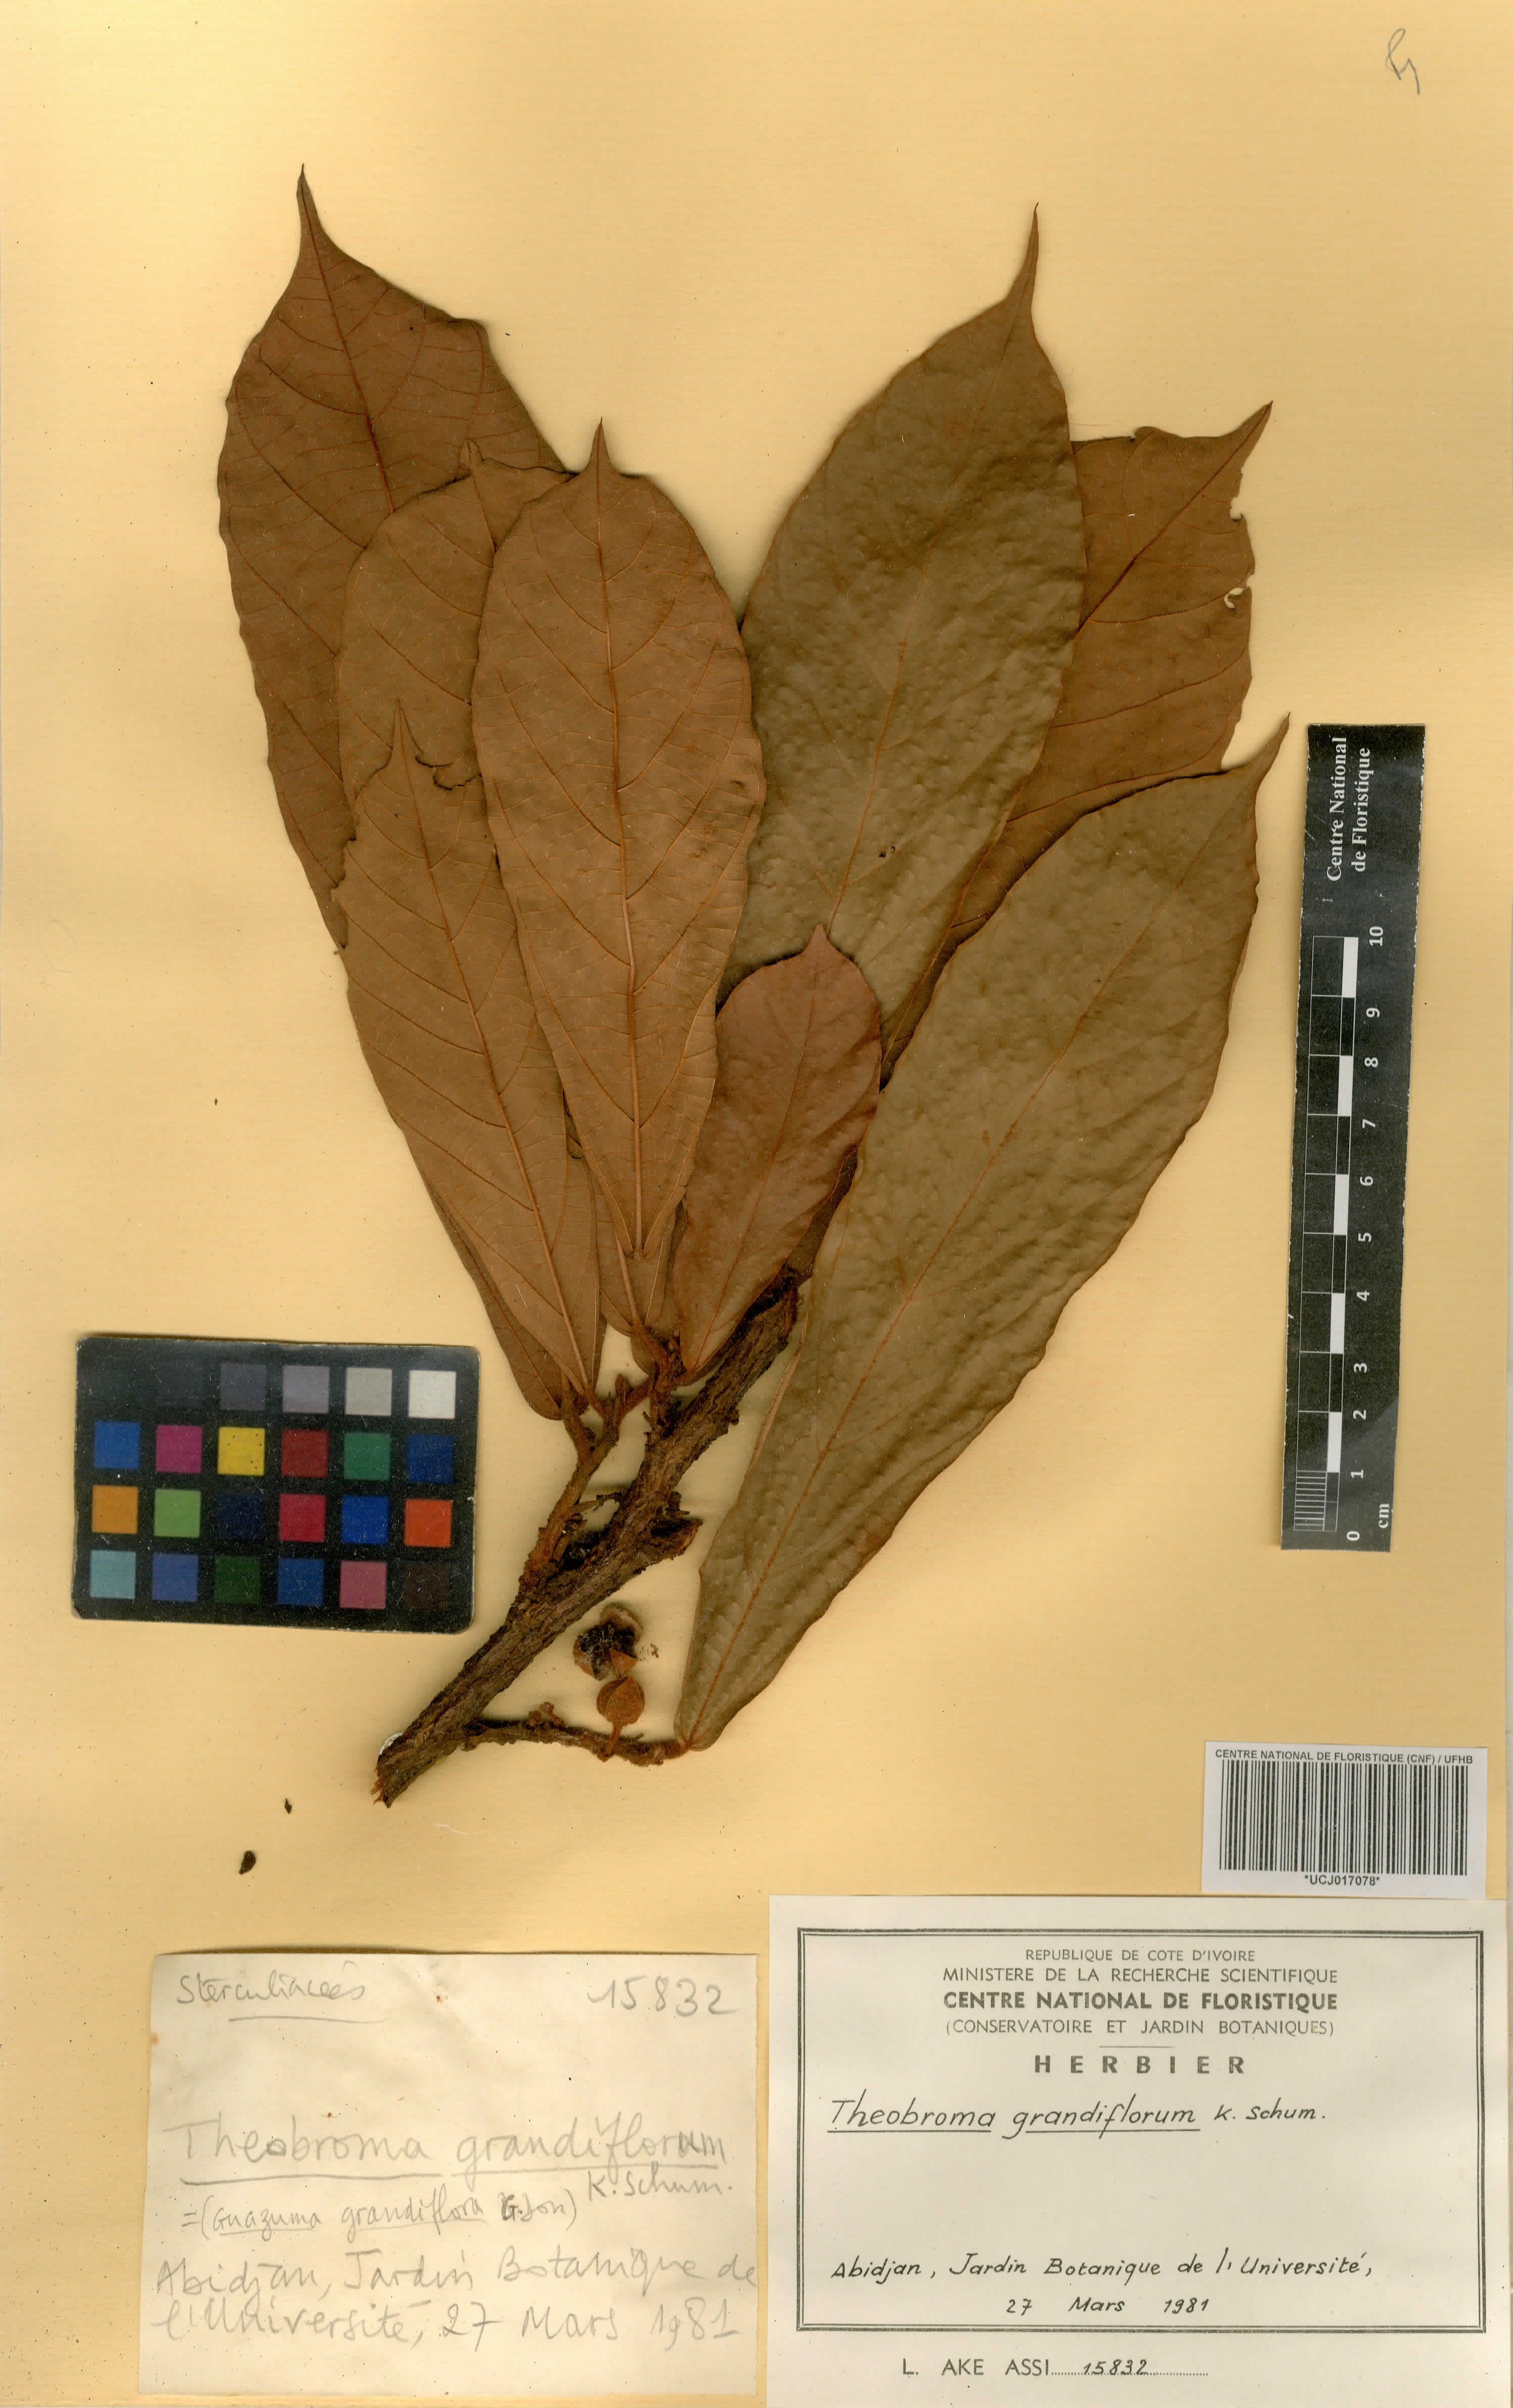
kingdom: Plantae
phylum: Tracheophyta
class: Magnoliopsida
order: Malvales
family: Malvaceae
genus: Theobroma
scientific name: Theobroma grandiflorum
